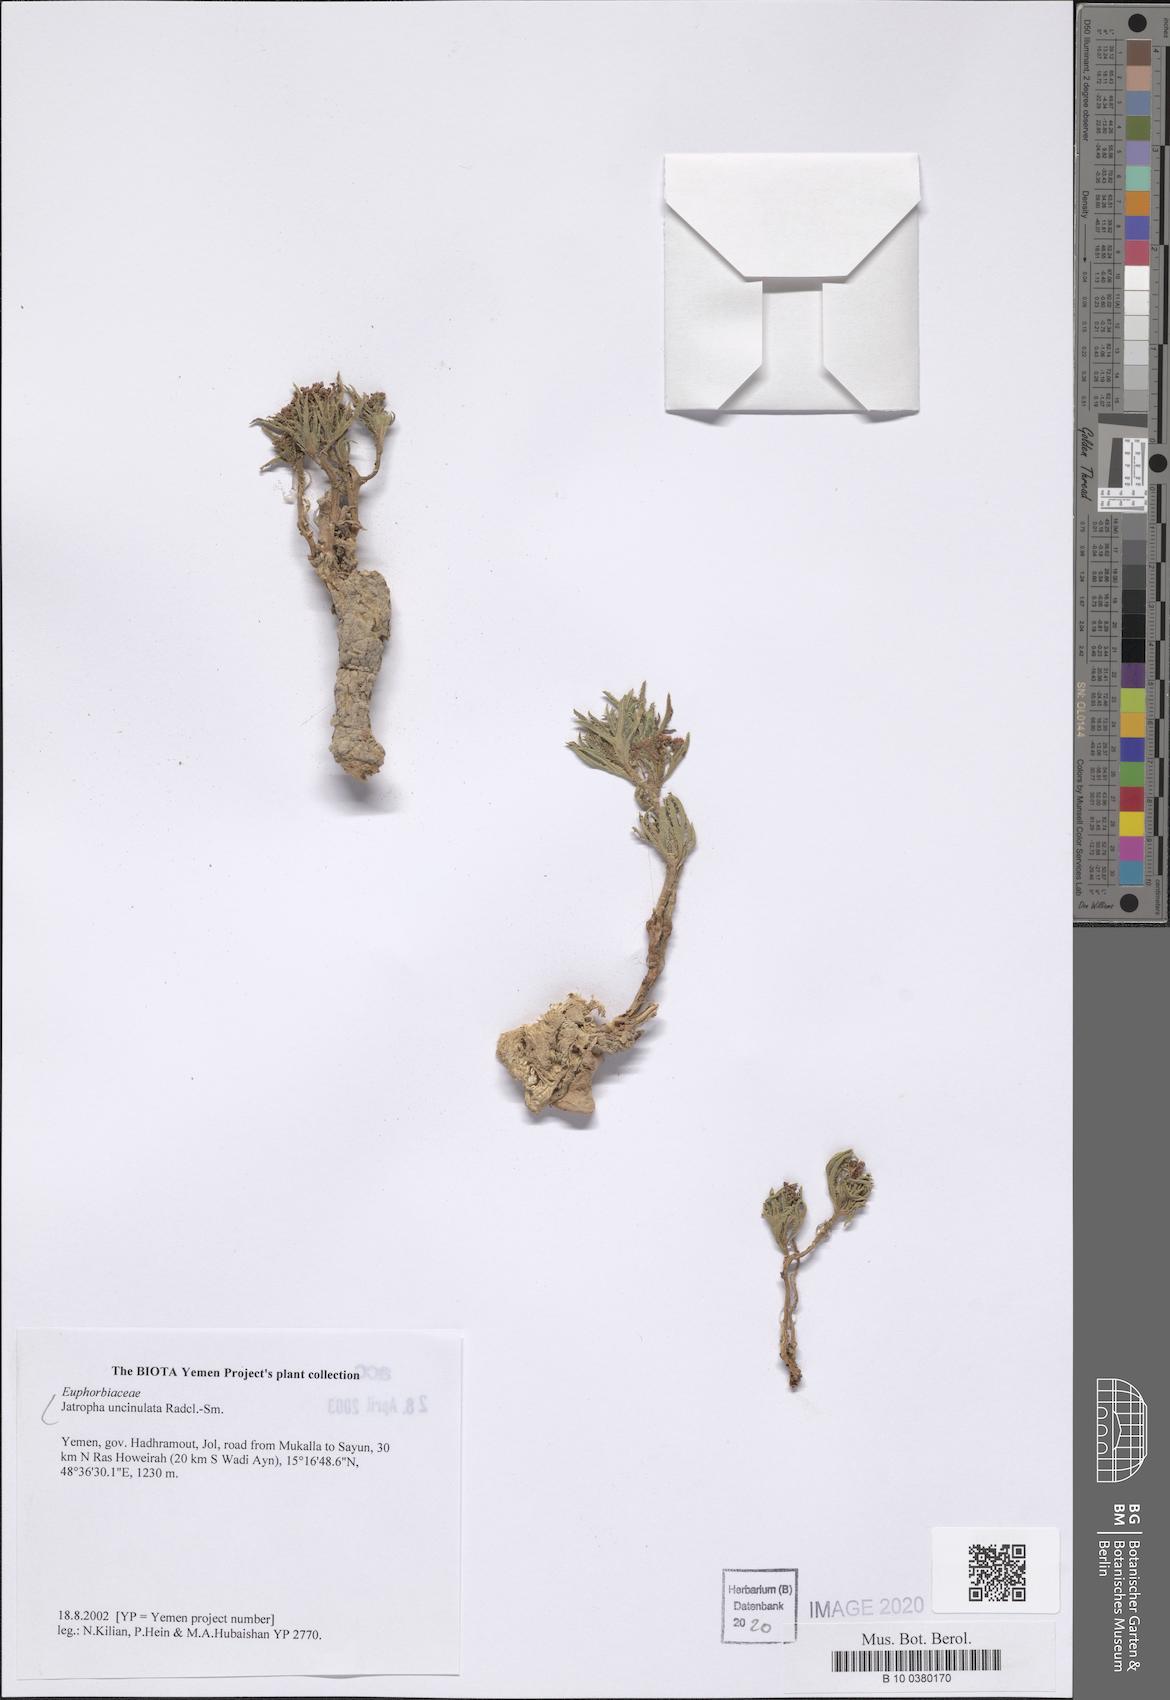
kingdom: Plantae
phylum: Tracheophyta
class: Magnoliopsida
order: Malpighiales
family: Euphorbiaceae
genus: Jatropha
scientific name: Jatropha uncinulata
